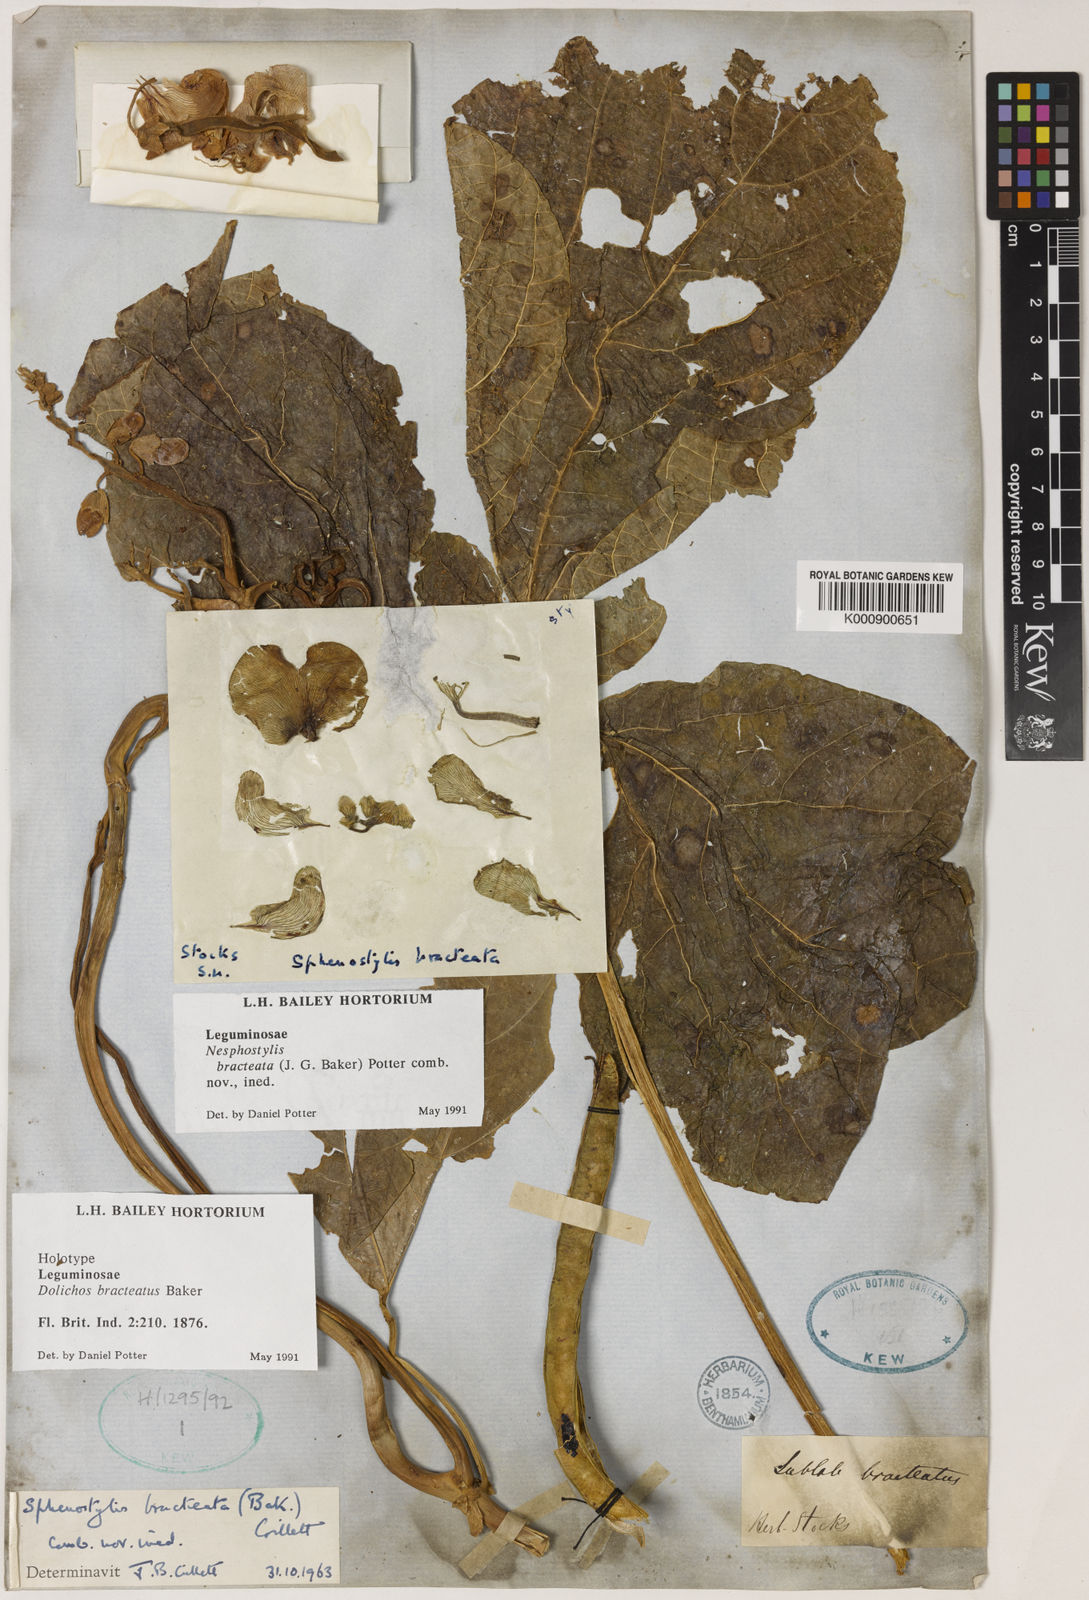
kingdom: Plantae
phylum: Tracheophyta
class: Magnoliopsida
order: Fabales
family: Fabaceae
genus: Lablab
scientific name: Lablab purpureus
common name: Lablab-bean
